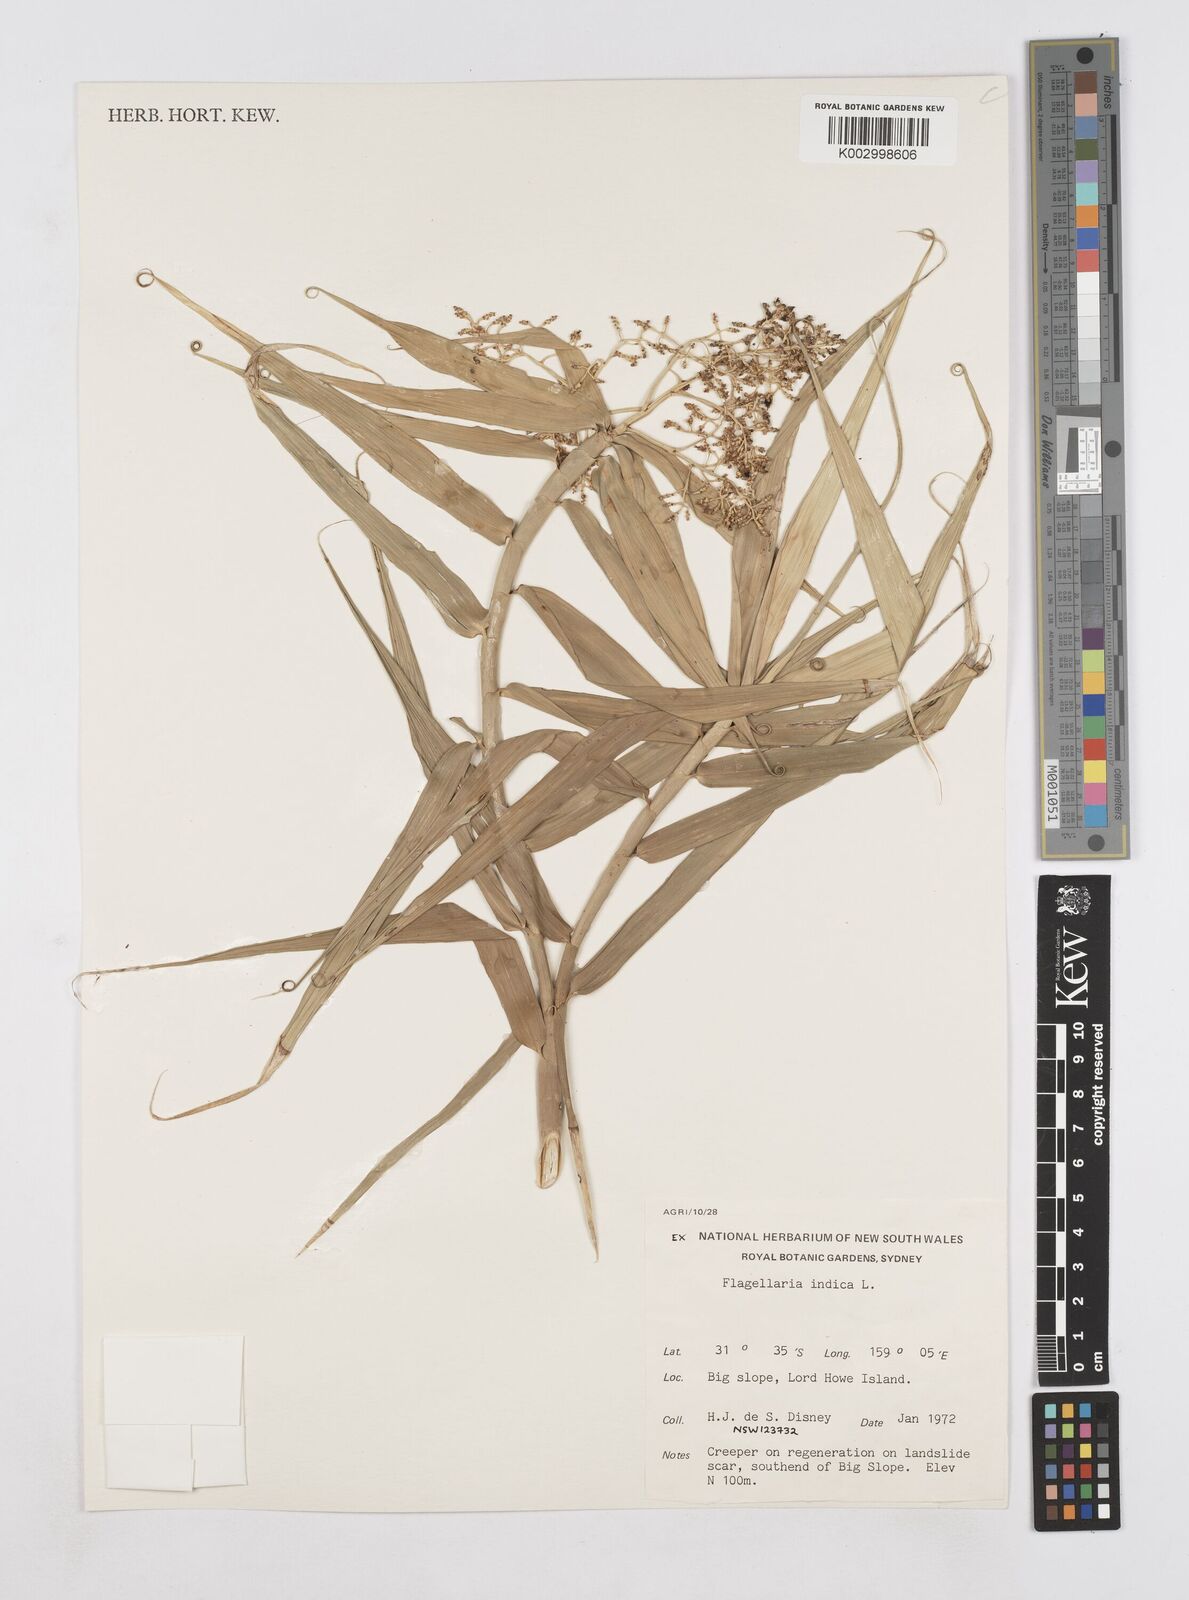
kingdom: Plantae
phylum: Tracheophyta
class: Liliopsida
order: Poales
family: Flagellariaceae
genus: Flagellaria
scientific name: Flagellaria indica
